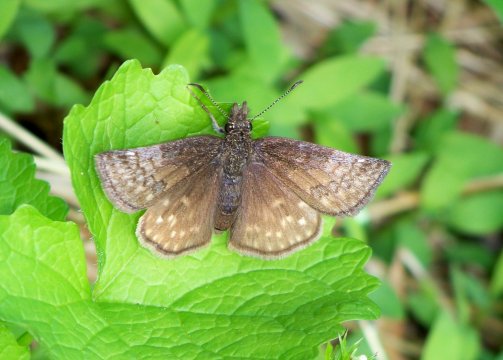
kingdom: Animalia
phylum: Arthropoda
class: Insecta
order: Lepidoptera
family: Hesperiidae
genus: Erynnis
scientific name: Erynnis icelus
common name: Dreamy Duskywing
